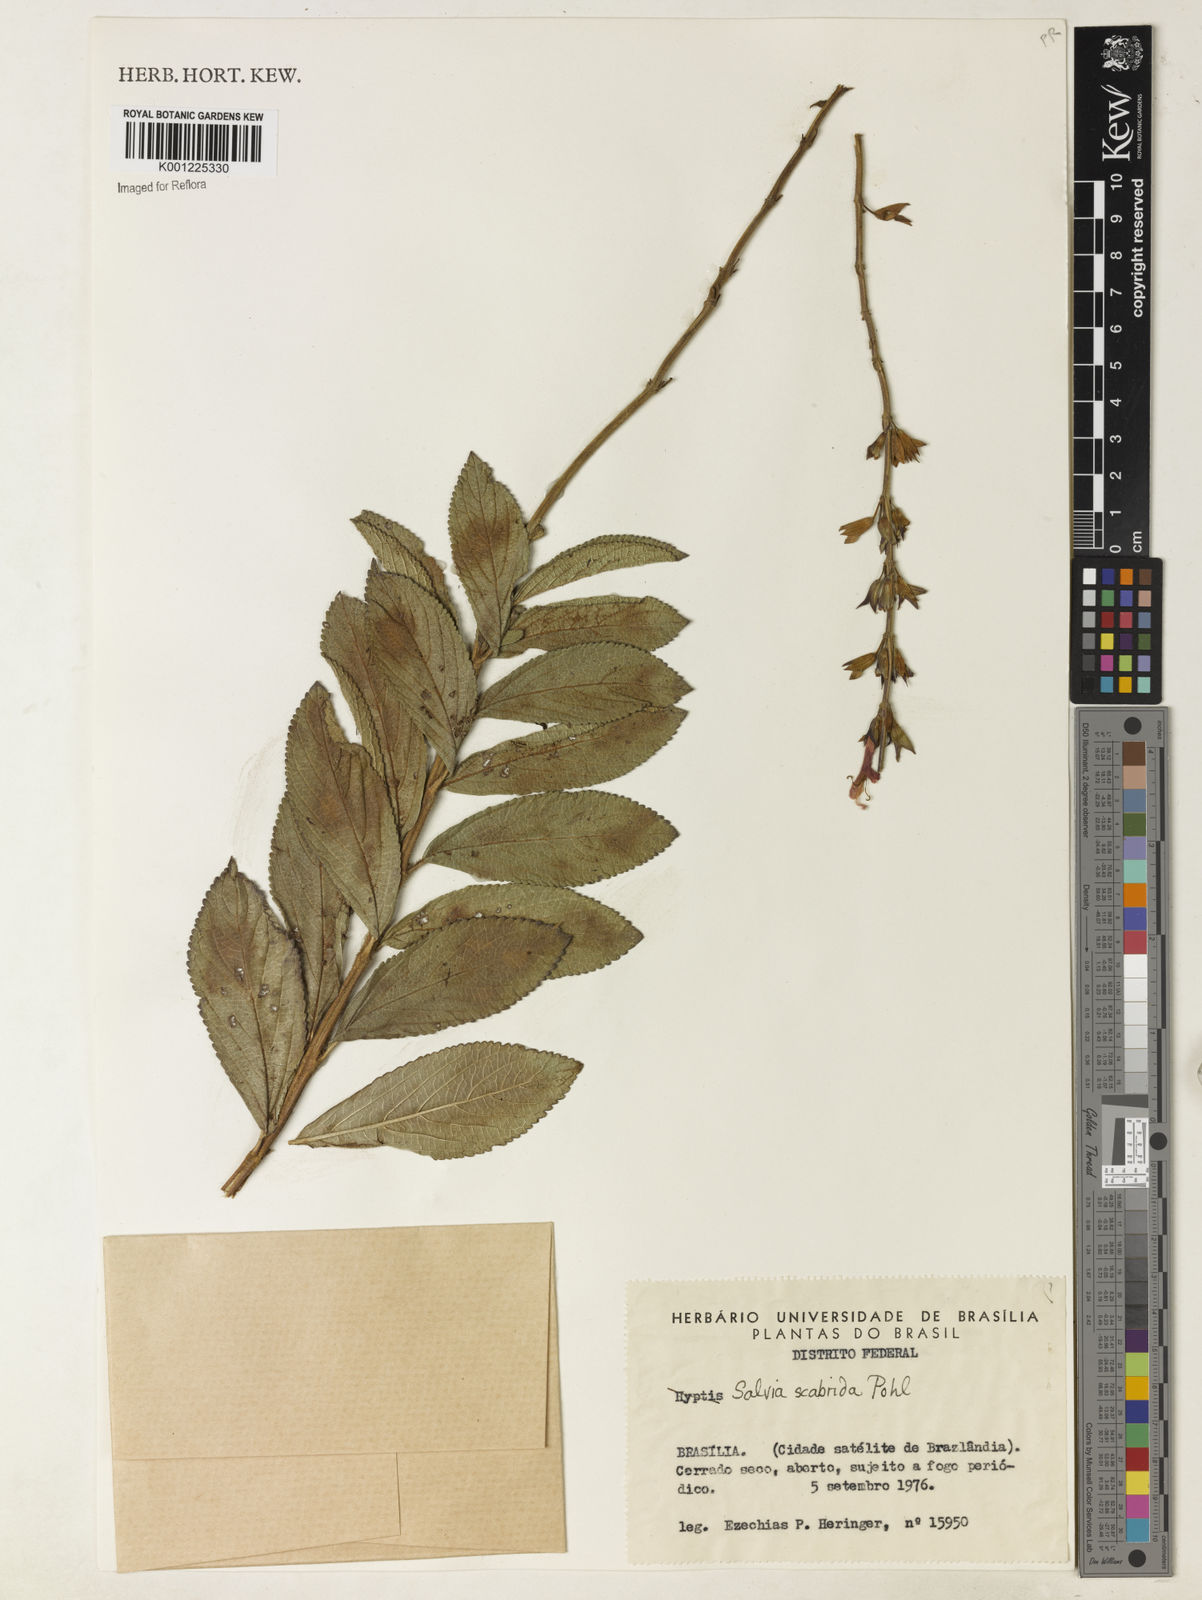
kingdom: Plantae
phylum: Tracheophyta
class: Magnoliopsida
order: Lamiales
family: Lamiaceae
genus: Salvia
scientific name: Salvia scabrida
